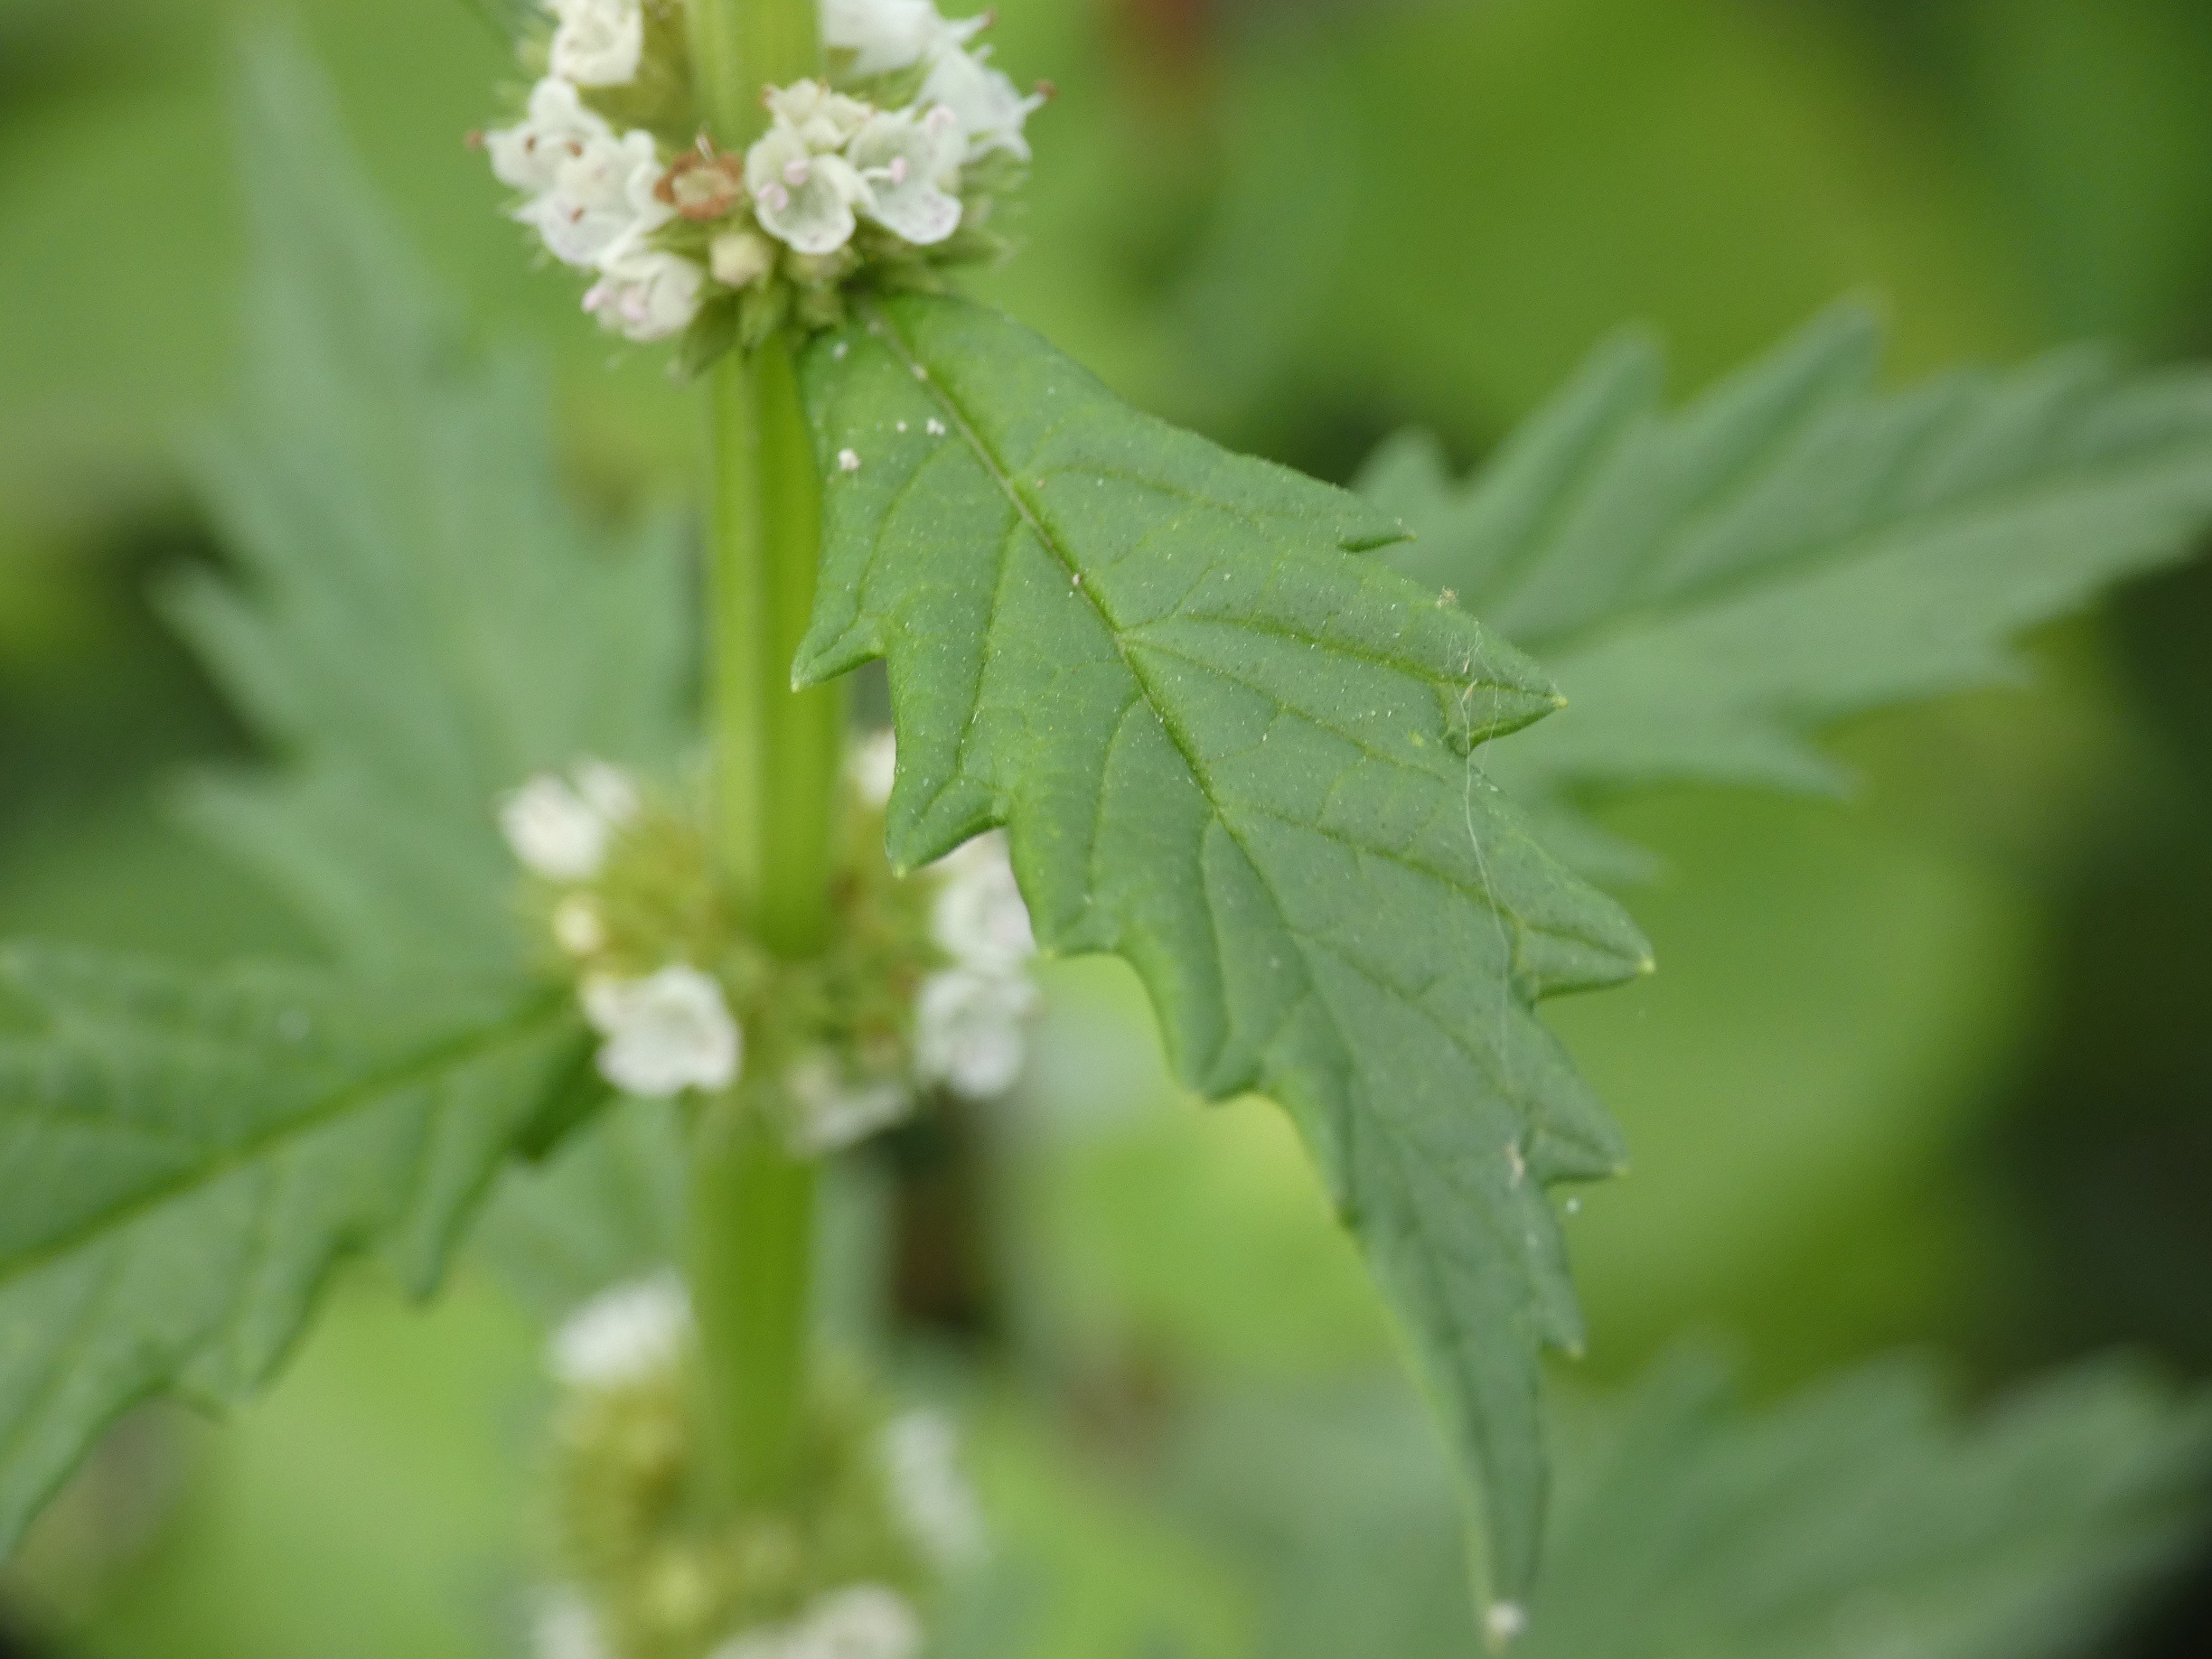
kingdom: Plantae
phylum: Tracheophyta
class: Magnoliopsida
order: Lamiales
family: Lamiaceae
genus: Lycopus
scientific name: Lycopus europaeus
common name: Sværtevæld
